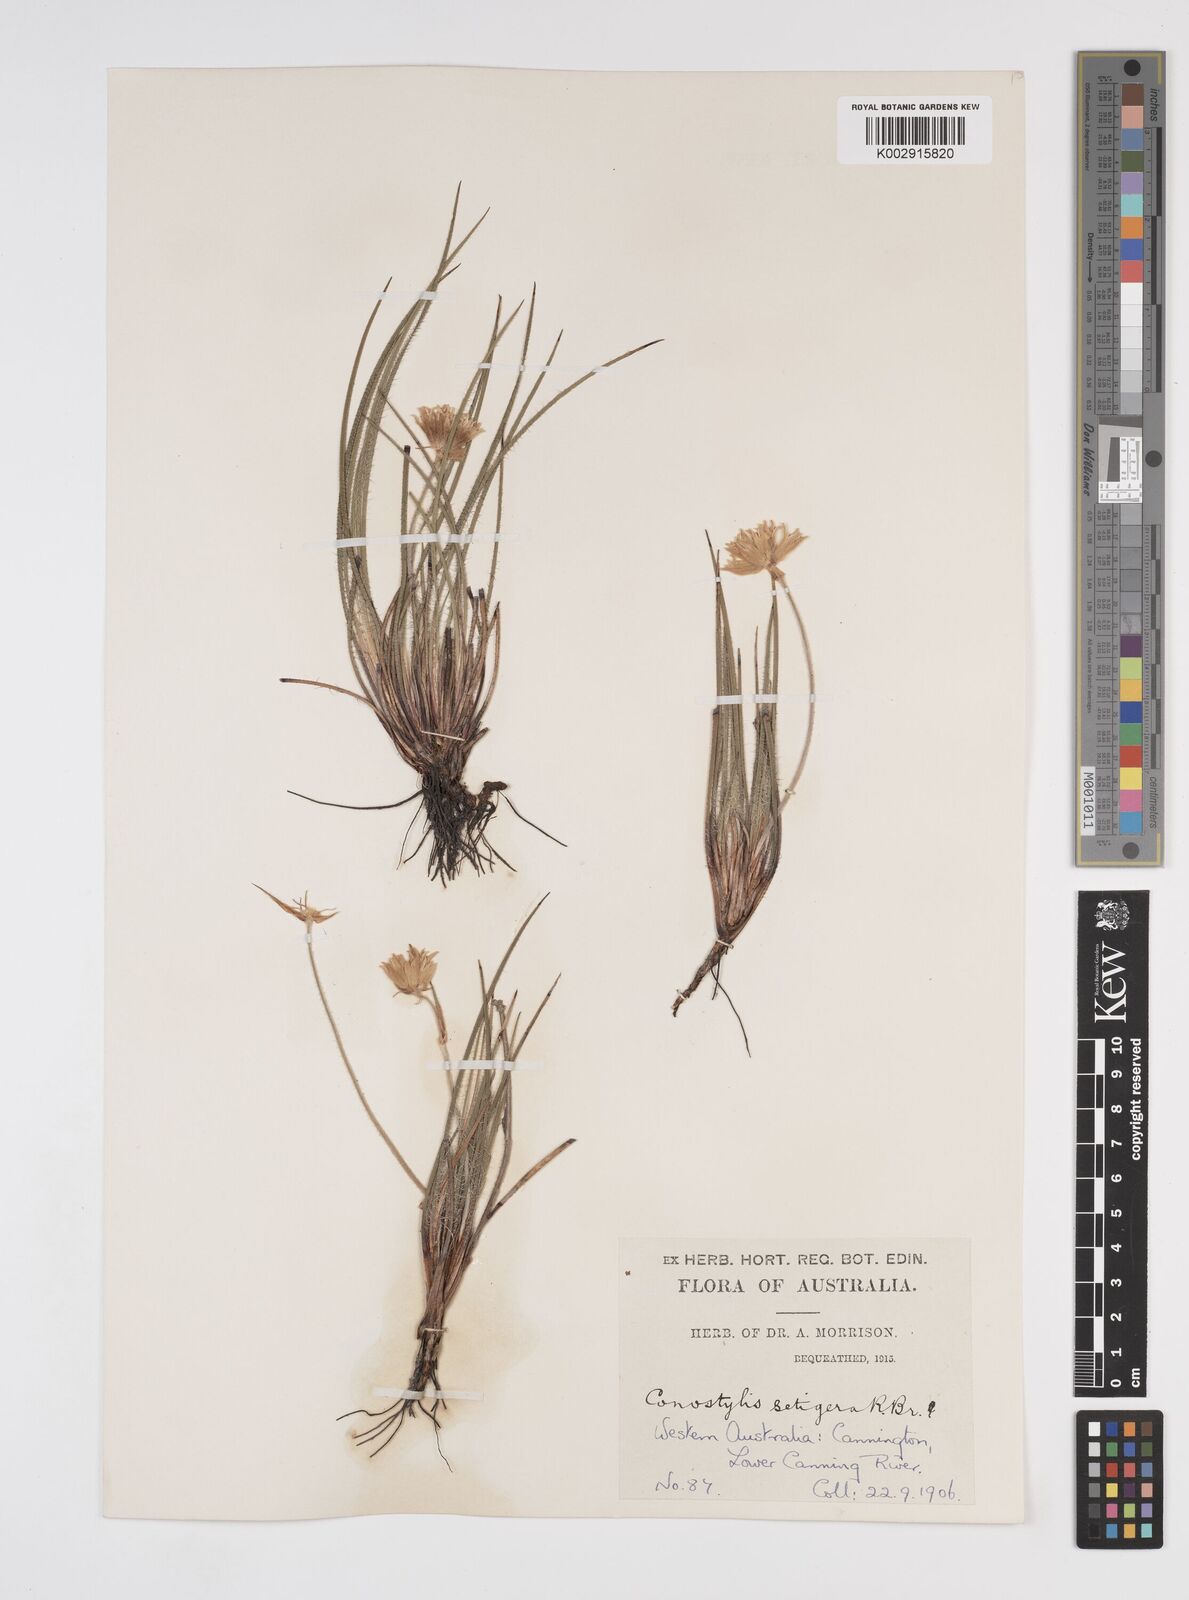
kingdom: Plantae
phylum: Tracheophyta
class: Liliopsida
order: Commelinales
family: Haemodoraceae
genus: Conostylis
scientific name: Conostylis setigera
